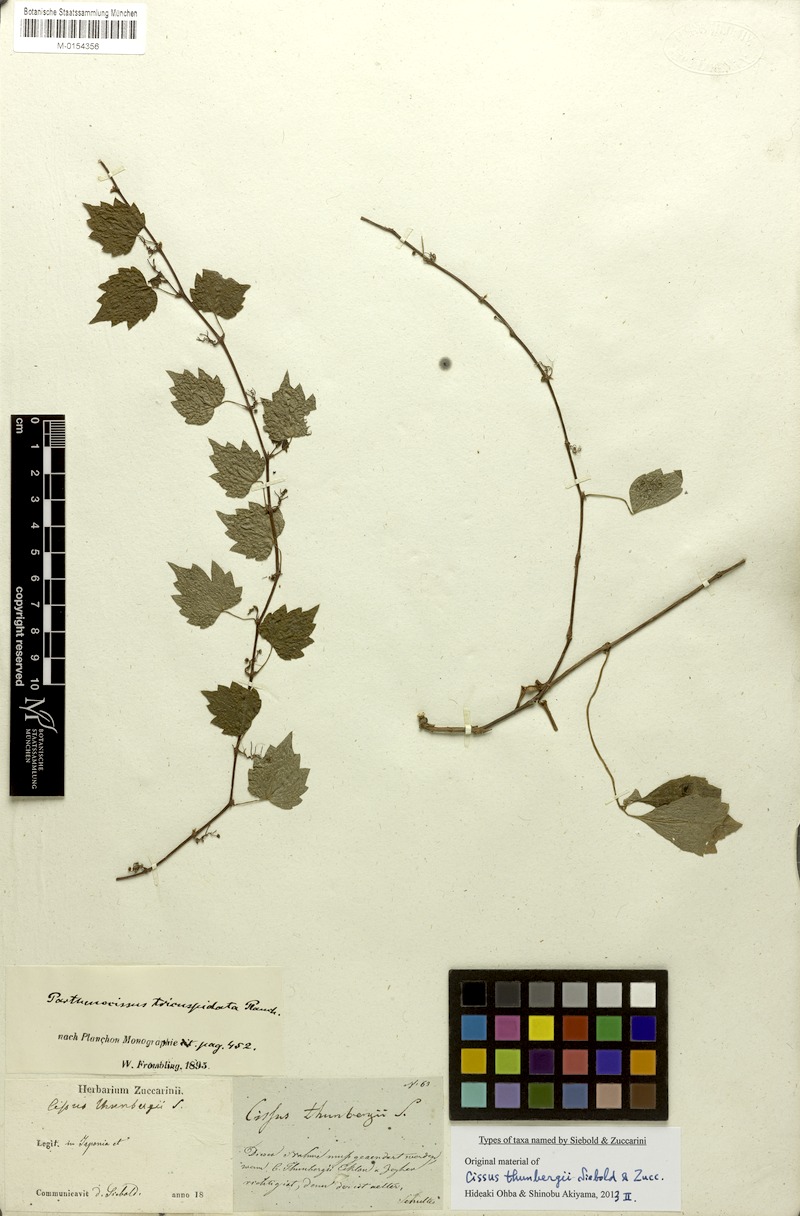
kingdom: Plantae
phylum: Tracheophyta
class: Magnoliopsida
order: Vitales
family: Vitaceae
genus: Parthenocissus
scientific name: Parthenocissus tricuspidata
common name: Boston ivy
